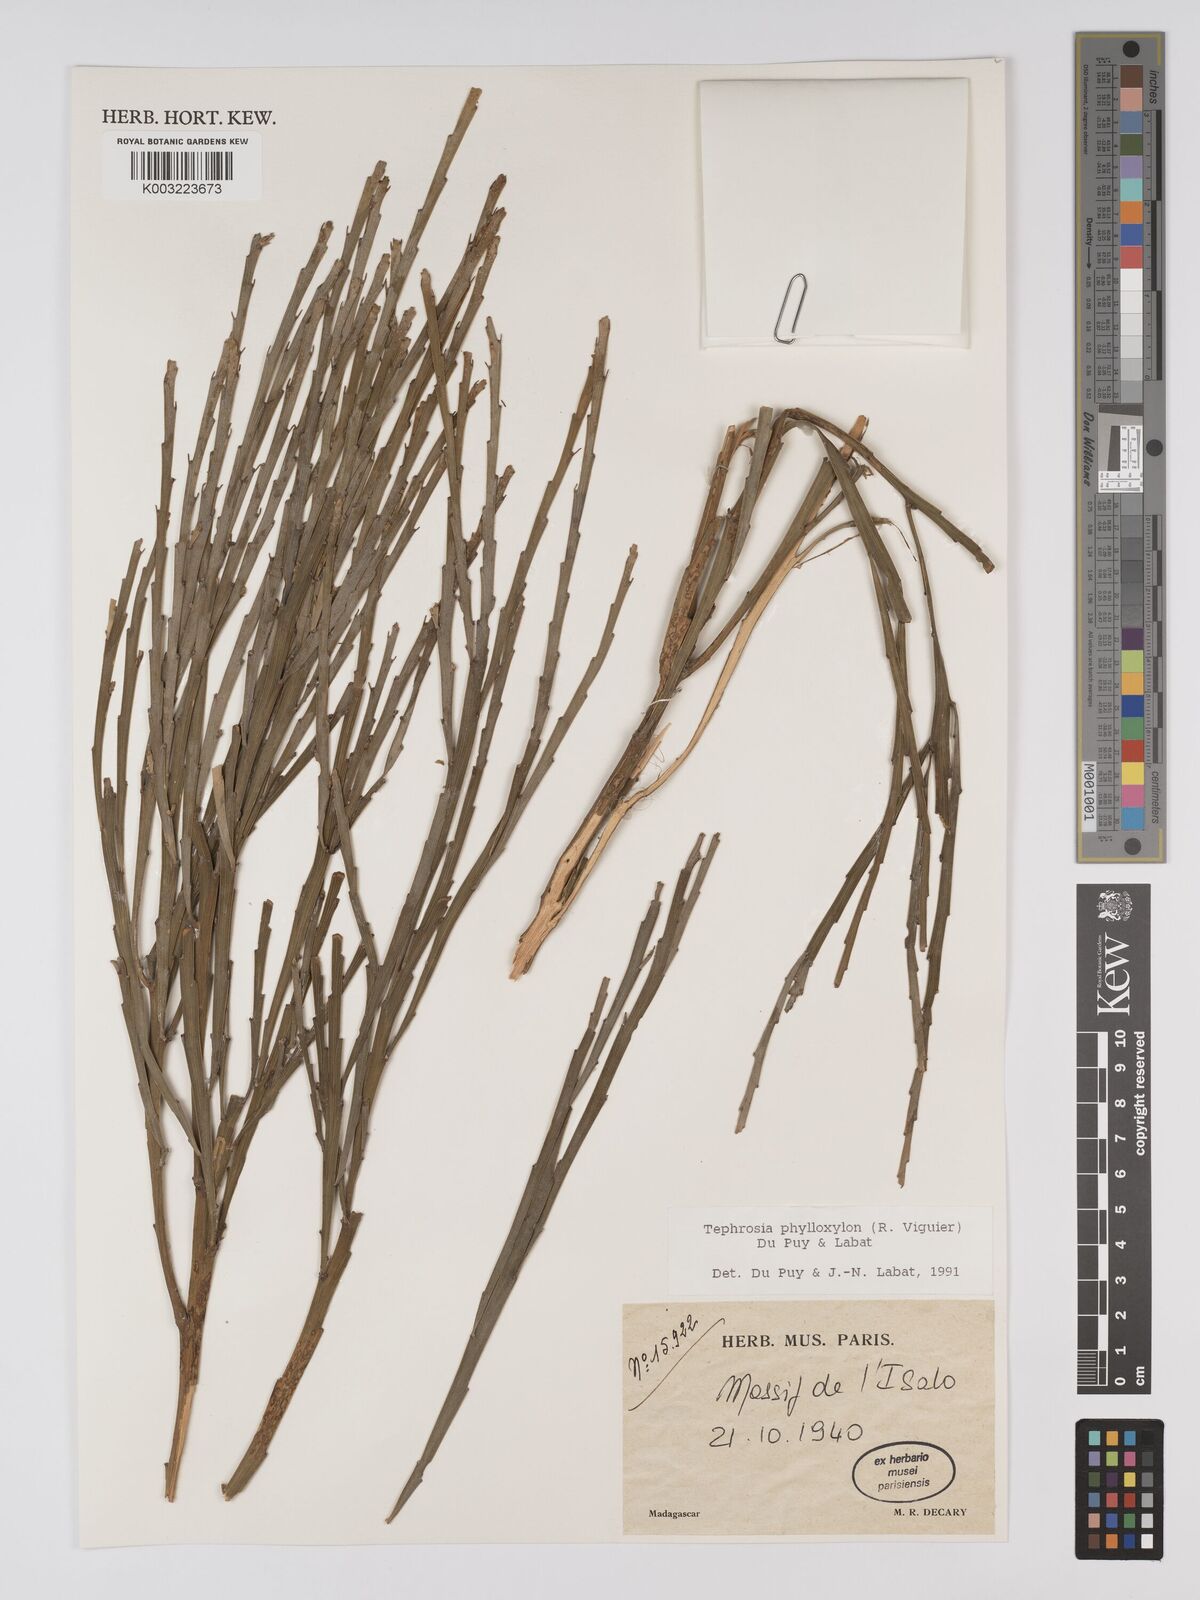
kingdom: Plantae
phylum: Tracheophyta
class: Magnoliopsida
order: Fabales
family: Fabaceae
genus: Tephrosia
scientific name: Tephrosia phylloxylon
